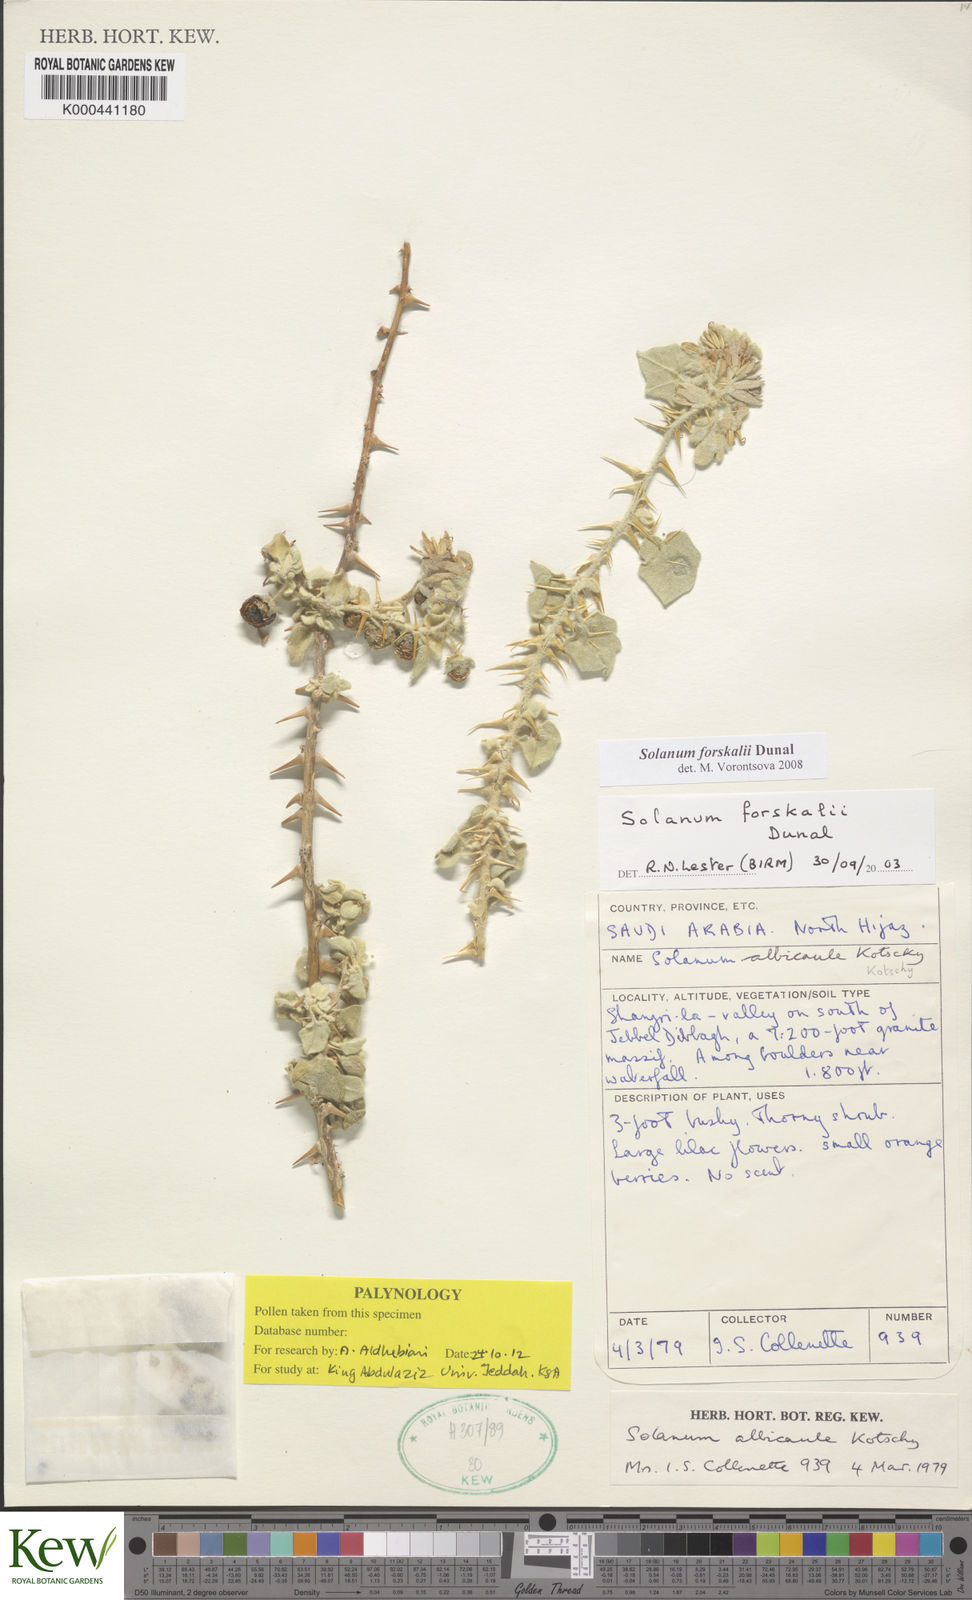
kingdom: Plantae
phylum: Tracheophyta
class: Magnoliopsida
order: Solanales
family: Solanaceae
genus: Solanum
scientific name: Solanum
